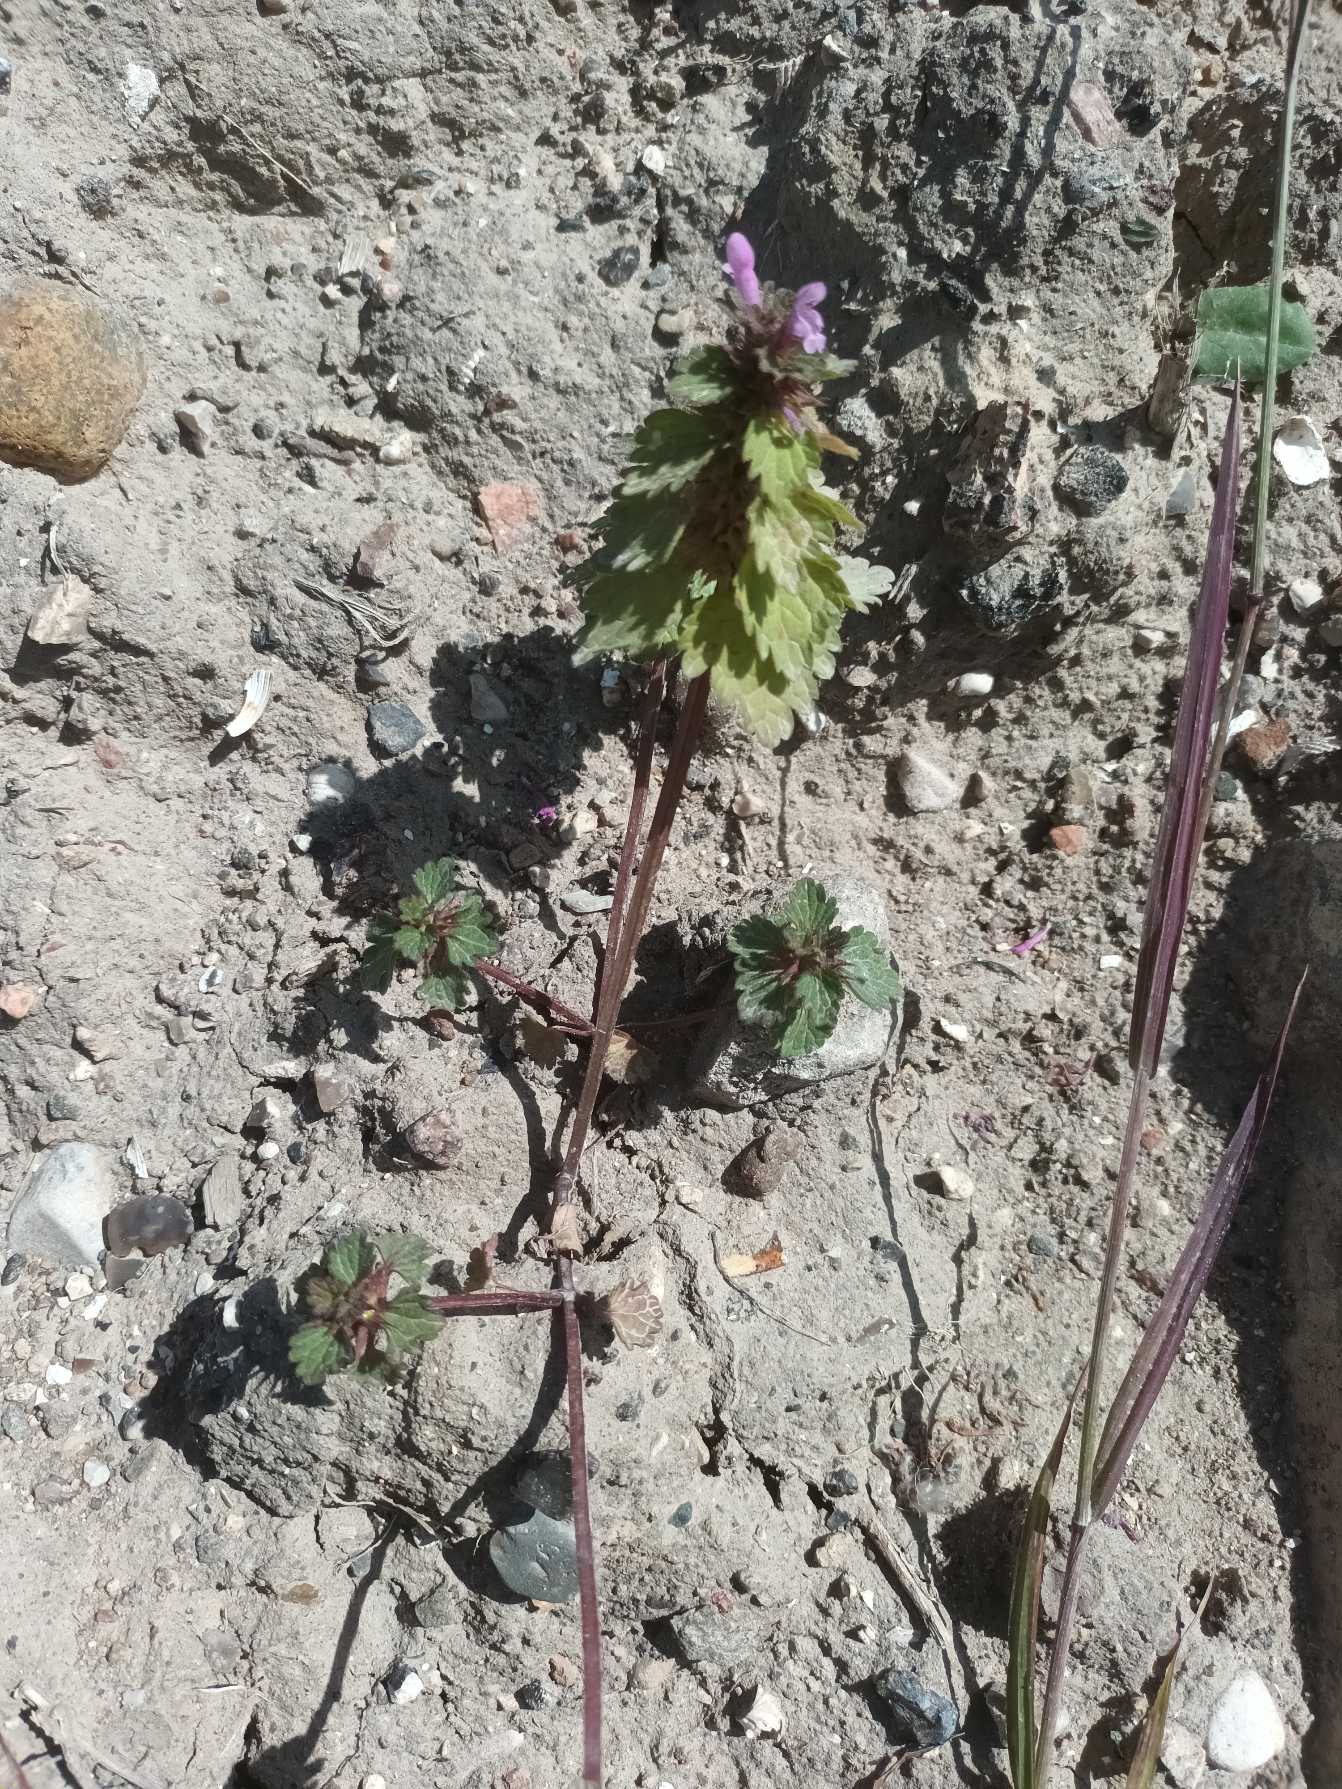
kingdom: Plantae
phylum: Tracheophyta
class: Magnoliopsida
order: Lamiales
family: Lamiaceae
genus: Lamium
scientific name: Lamium hybridum
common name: Fliget tvetand
